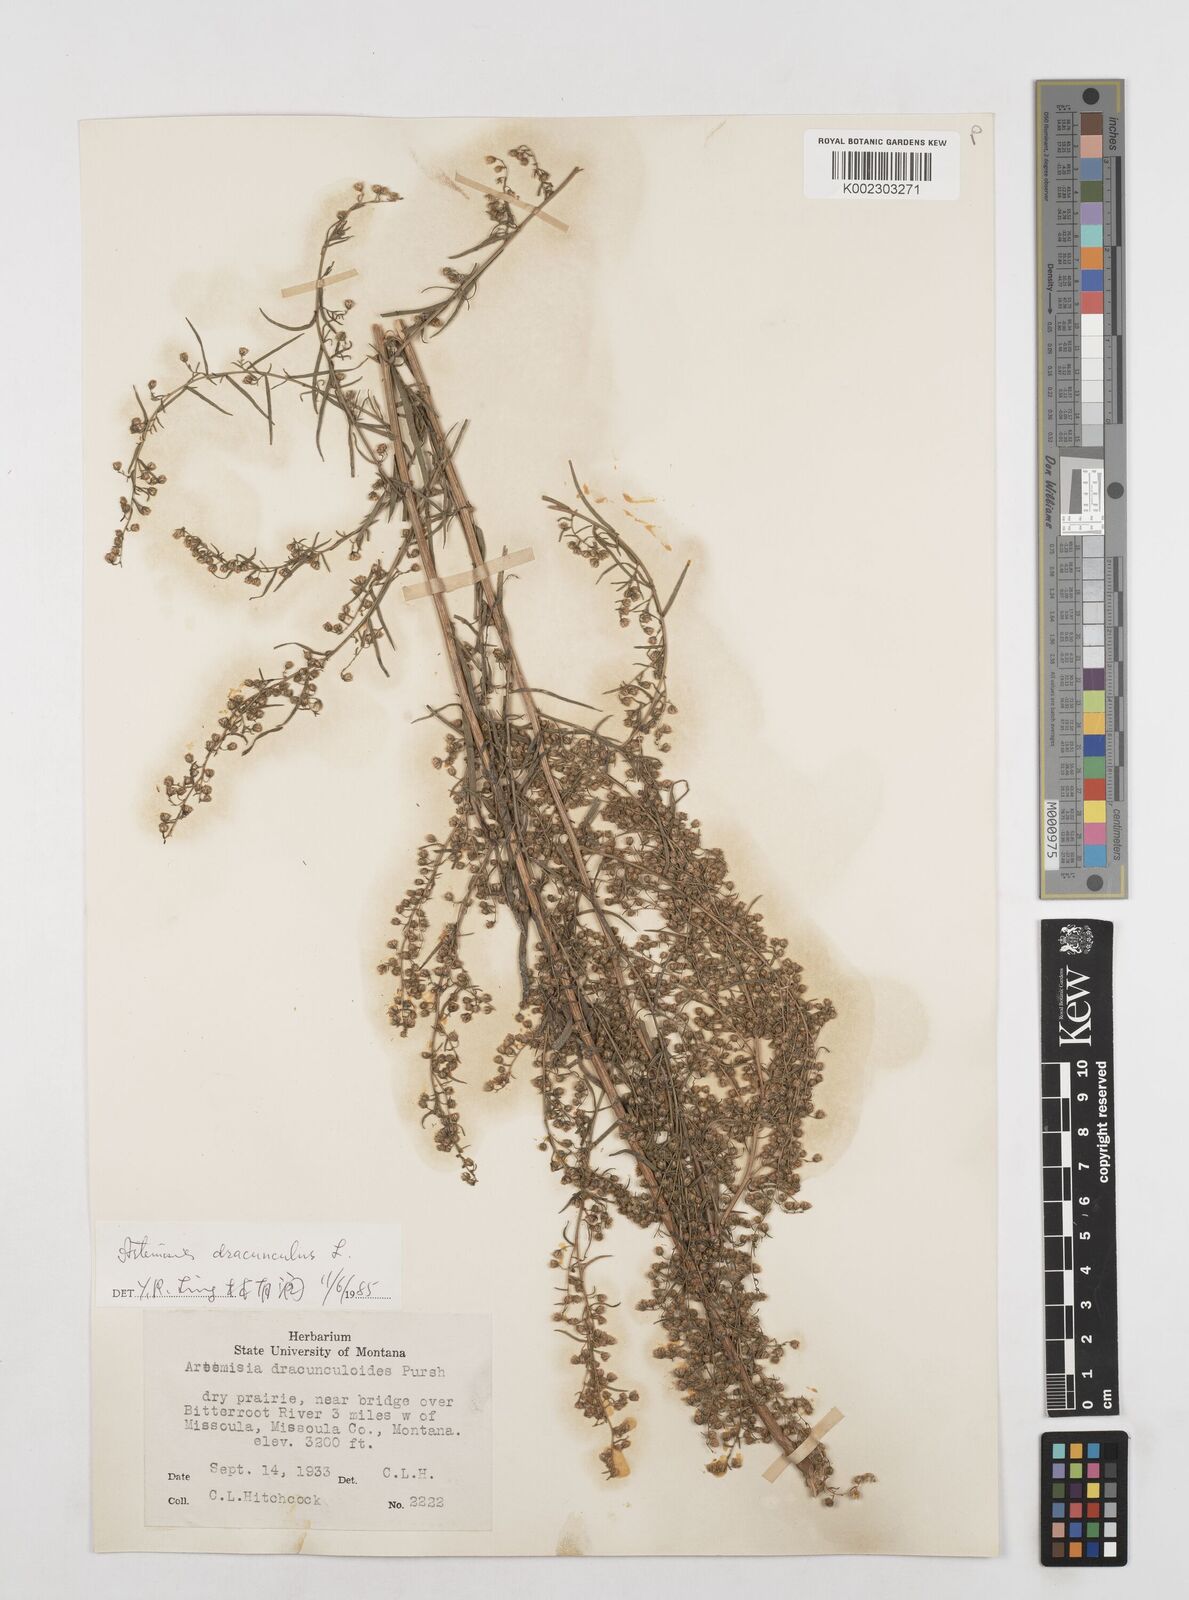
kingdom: Plantae
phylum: Tracheophyta
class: Magnoliopsida
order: Asterales
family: Asteraceae
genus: Artemisia
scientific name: Artemisia dracunculus
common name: Tarragon
